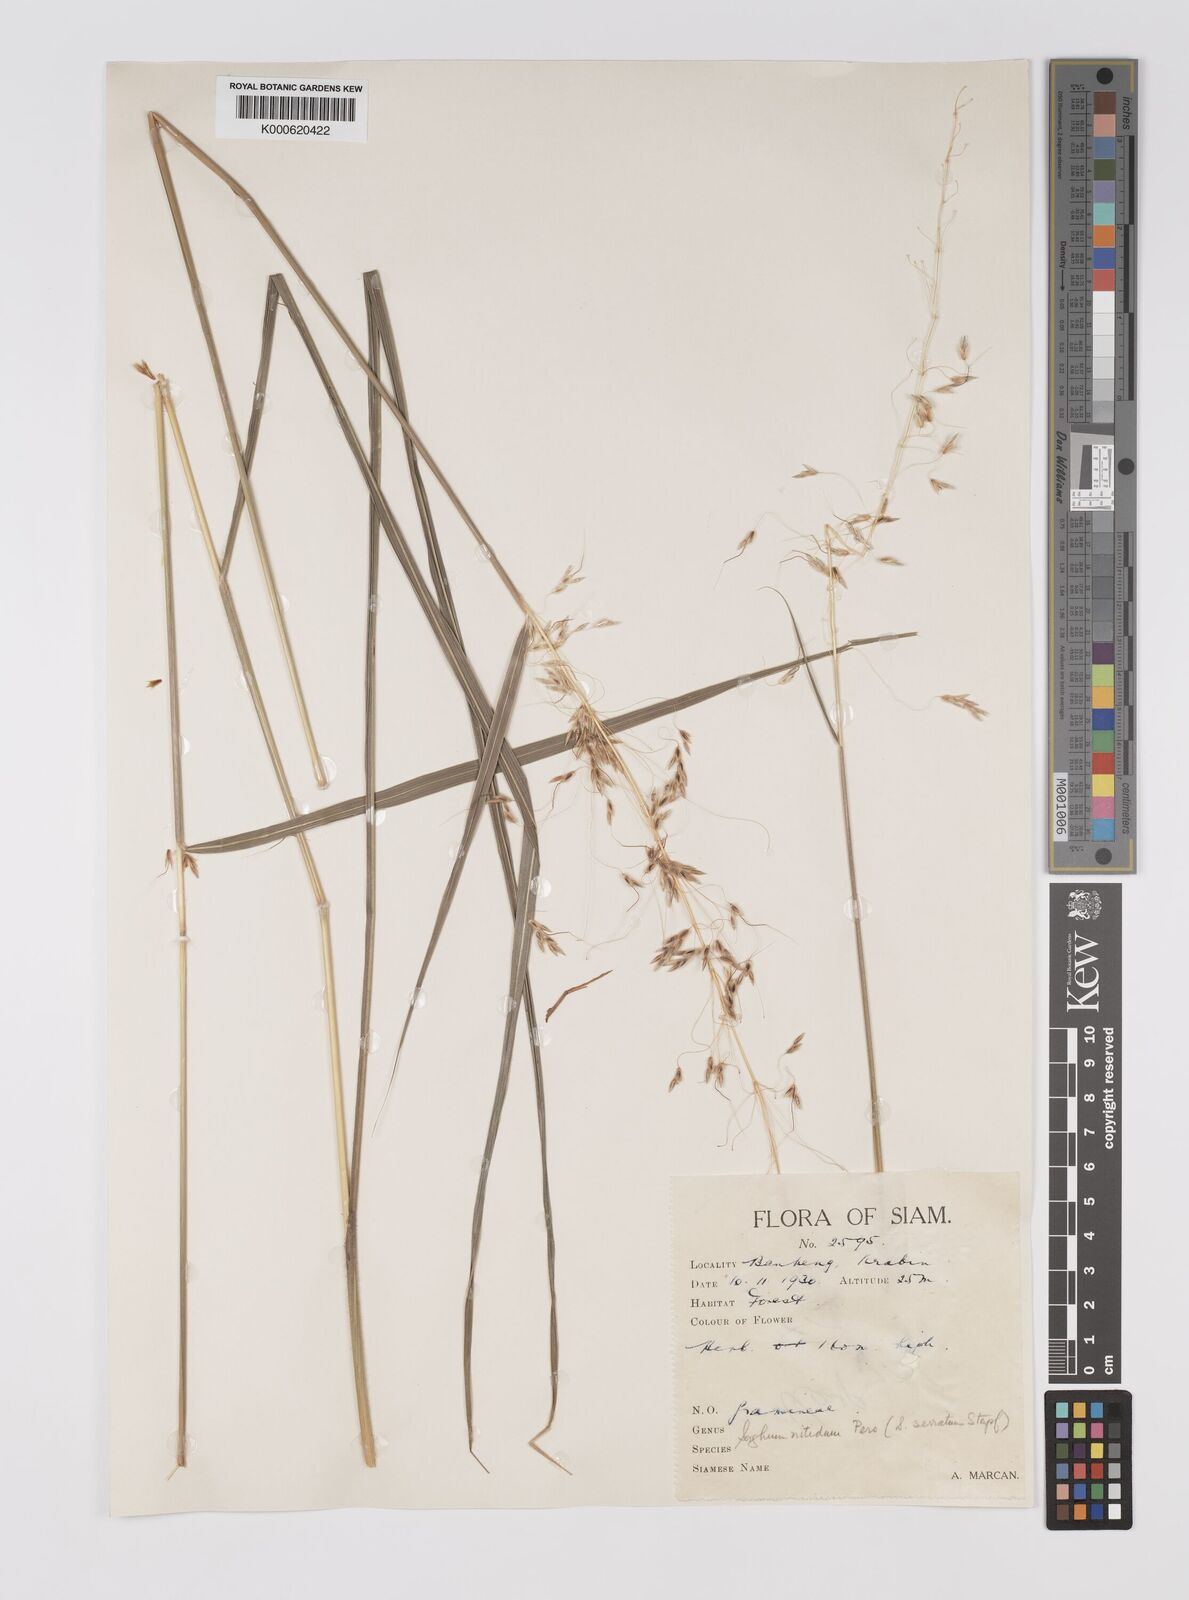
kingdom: Plantae
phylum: Tracheophyta
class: Liliopsida
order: Poales
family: Poaceae
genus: Sorghum
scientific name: Sorghum nitidum
